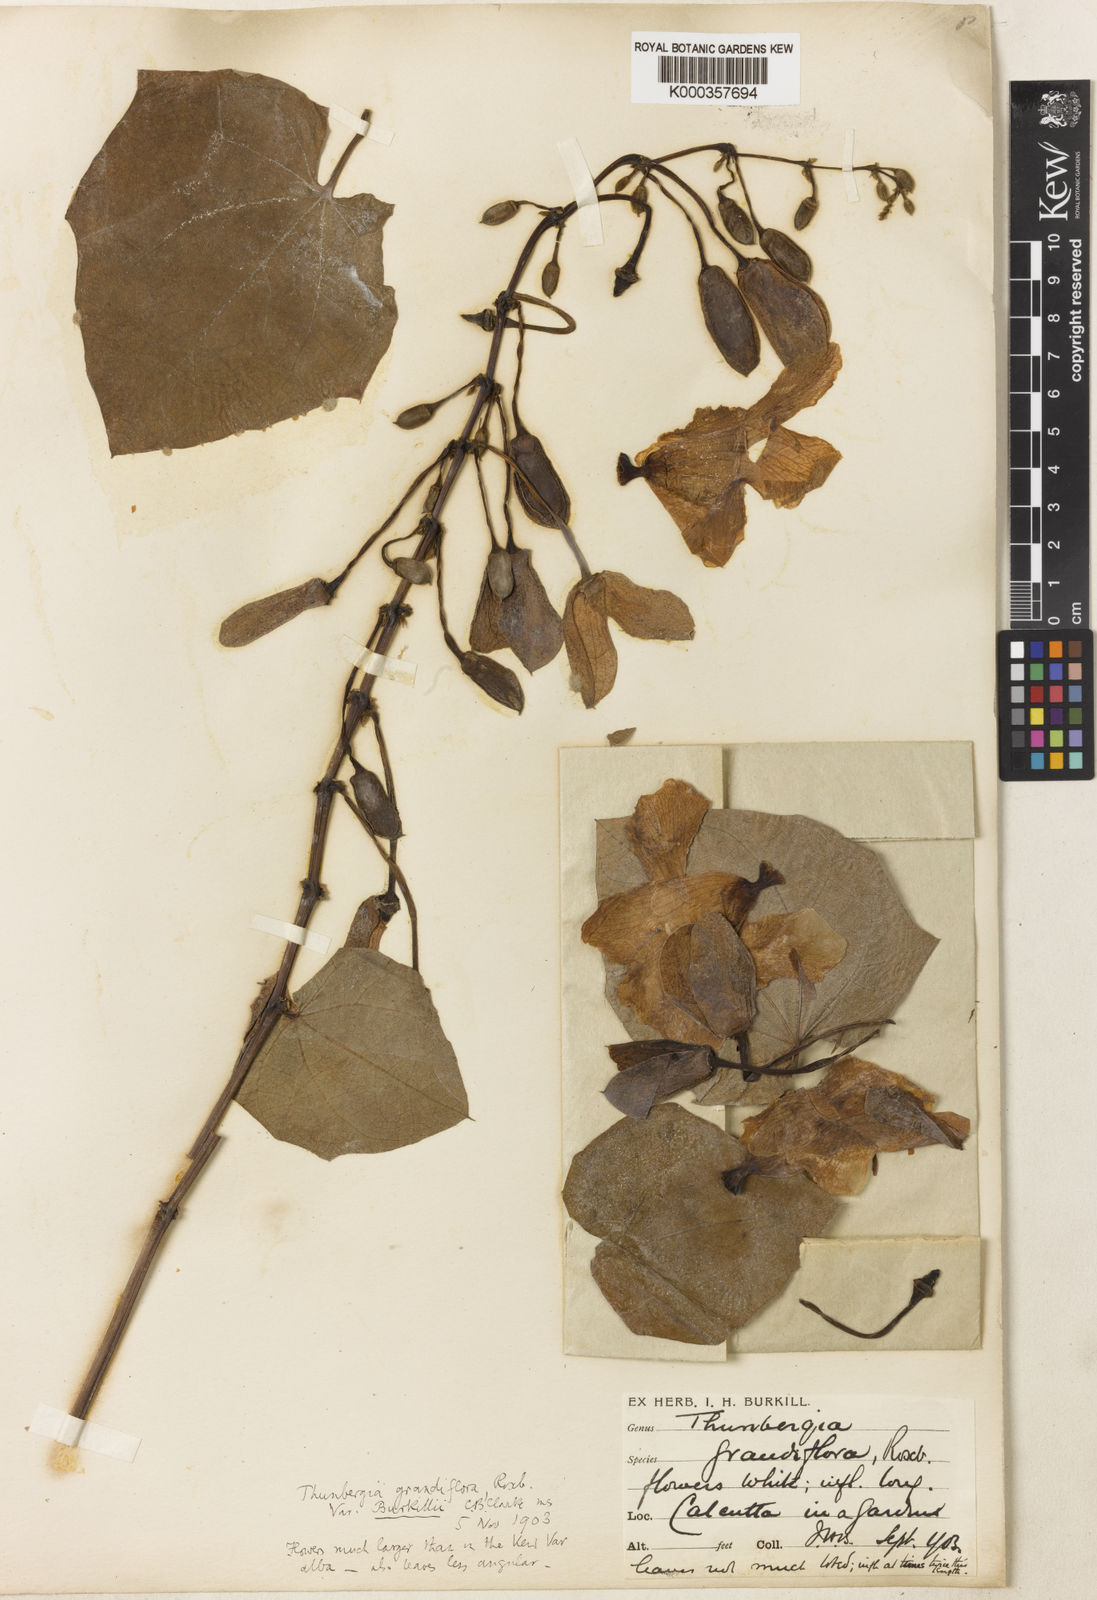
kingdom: Plantae
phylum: Tracheophyta
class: Magnoliopsida
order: Lamiales
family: Acanthaceae
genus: Thunbergia
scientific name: Thunbergia grandiflora
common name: Bengal trumpet
